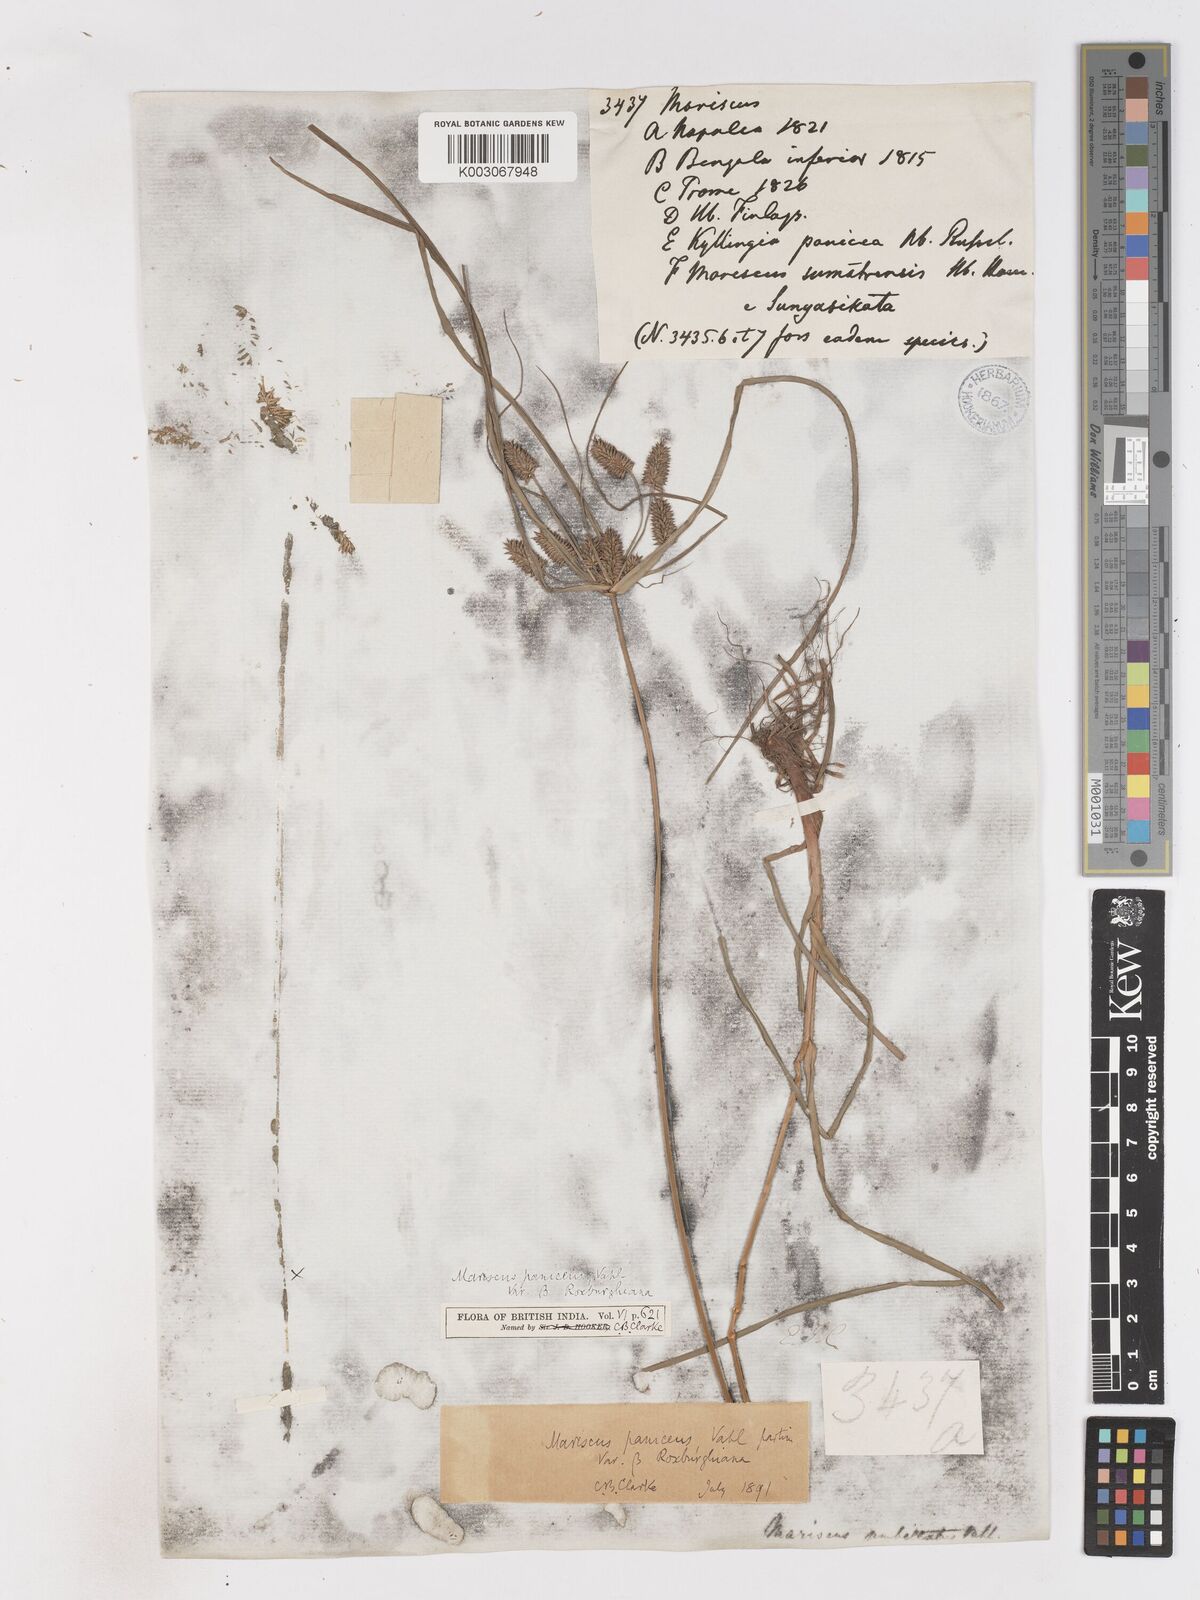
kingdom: Plantae
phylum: Tracheophyta
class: Liliopsida
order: Poales
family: Cyperaceae
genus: Cyperus
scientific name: Cyperus paniceus
